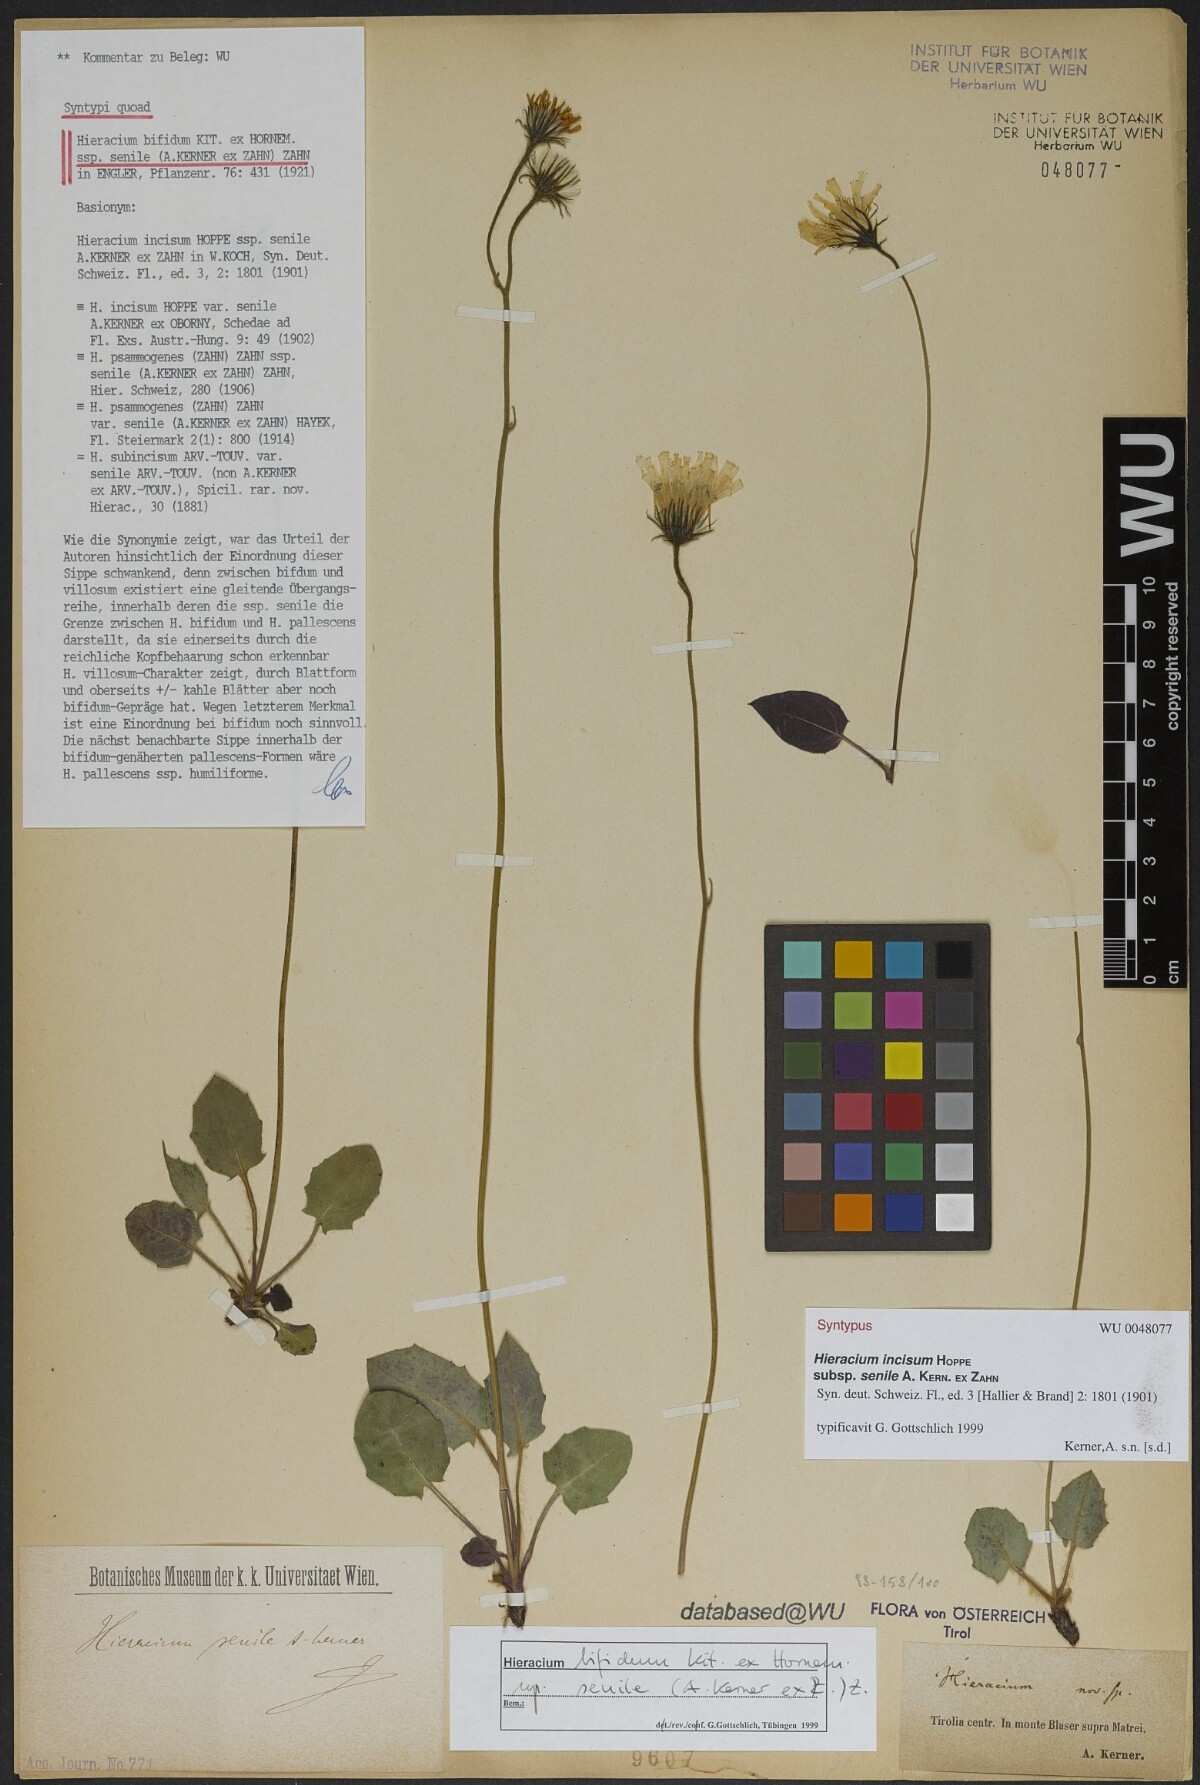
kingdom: Plantae
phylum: Tracheophyta
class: Magnoliopsida
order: Asterales
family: Asteraceae
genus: Hieracium
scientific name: Hieracium bifidum
